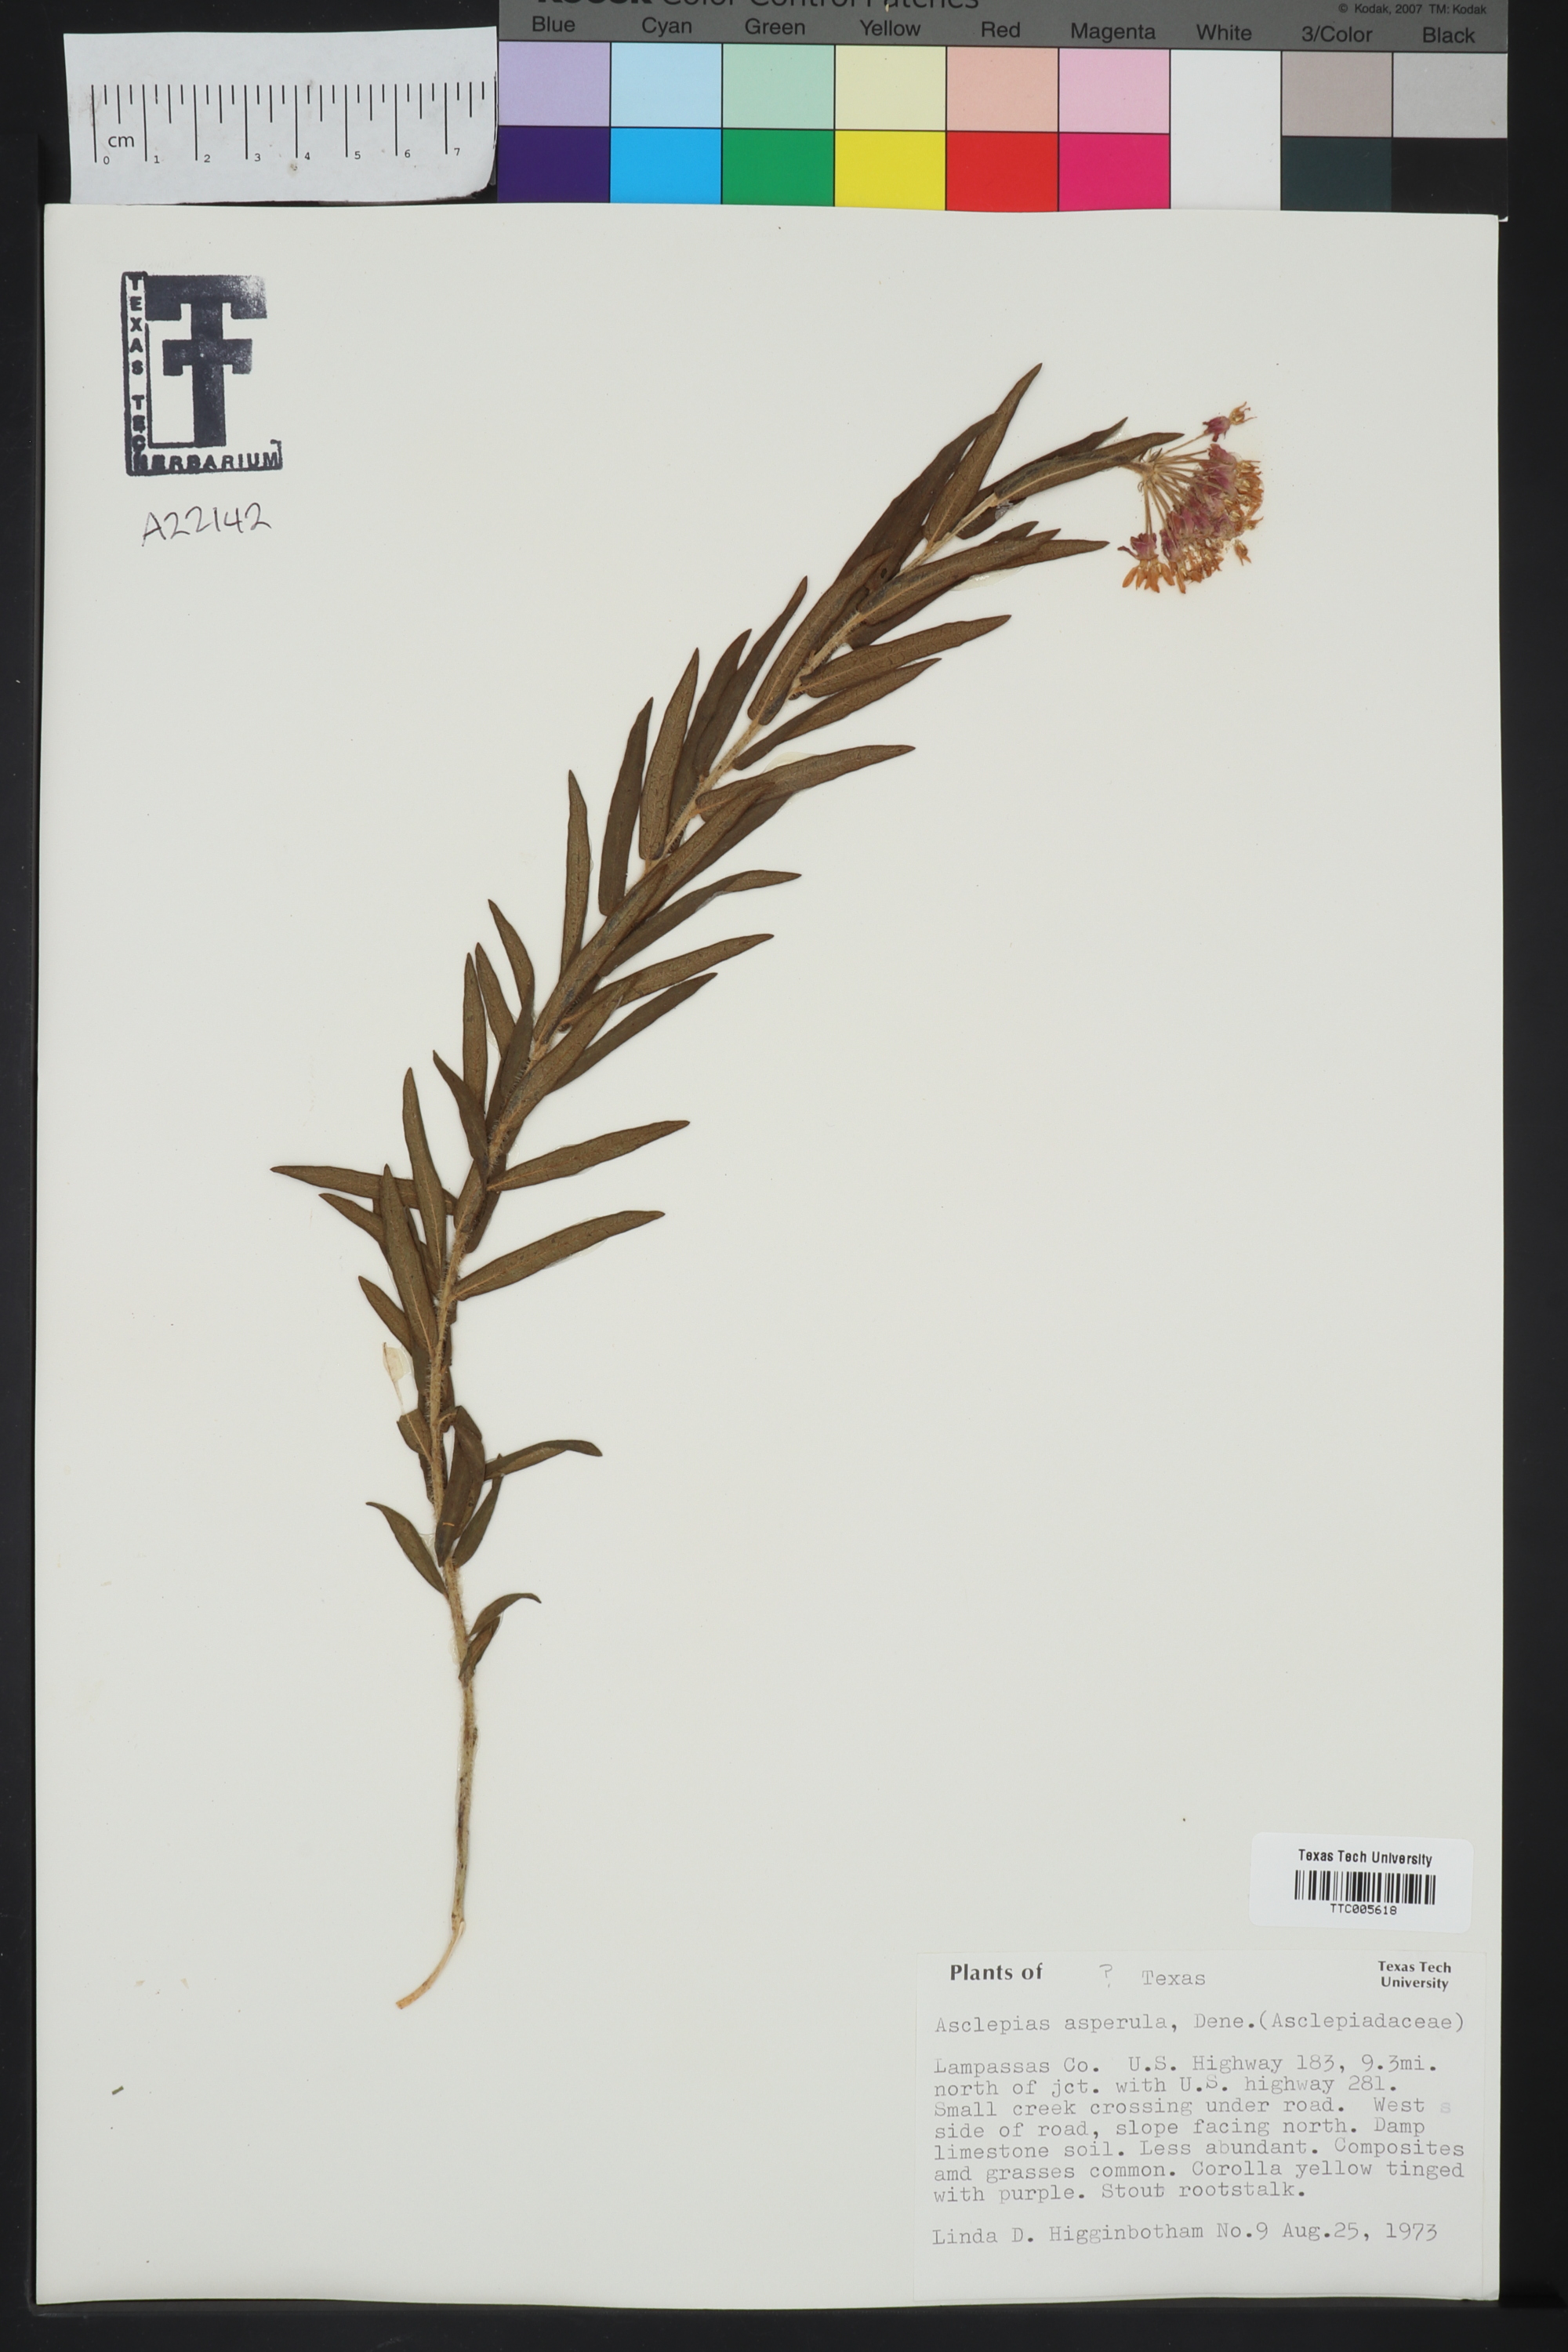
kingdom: Plantae
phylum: Tracheophyta
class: Magnoliopsida
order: Gentianales
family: Apocynaceae
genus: Asclepias
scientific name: Asclepias
